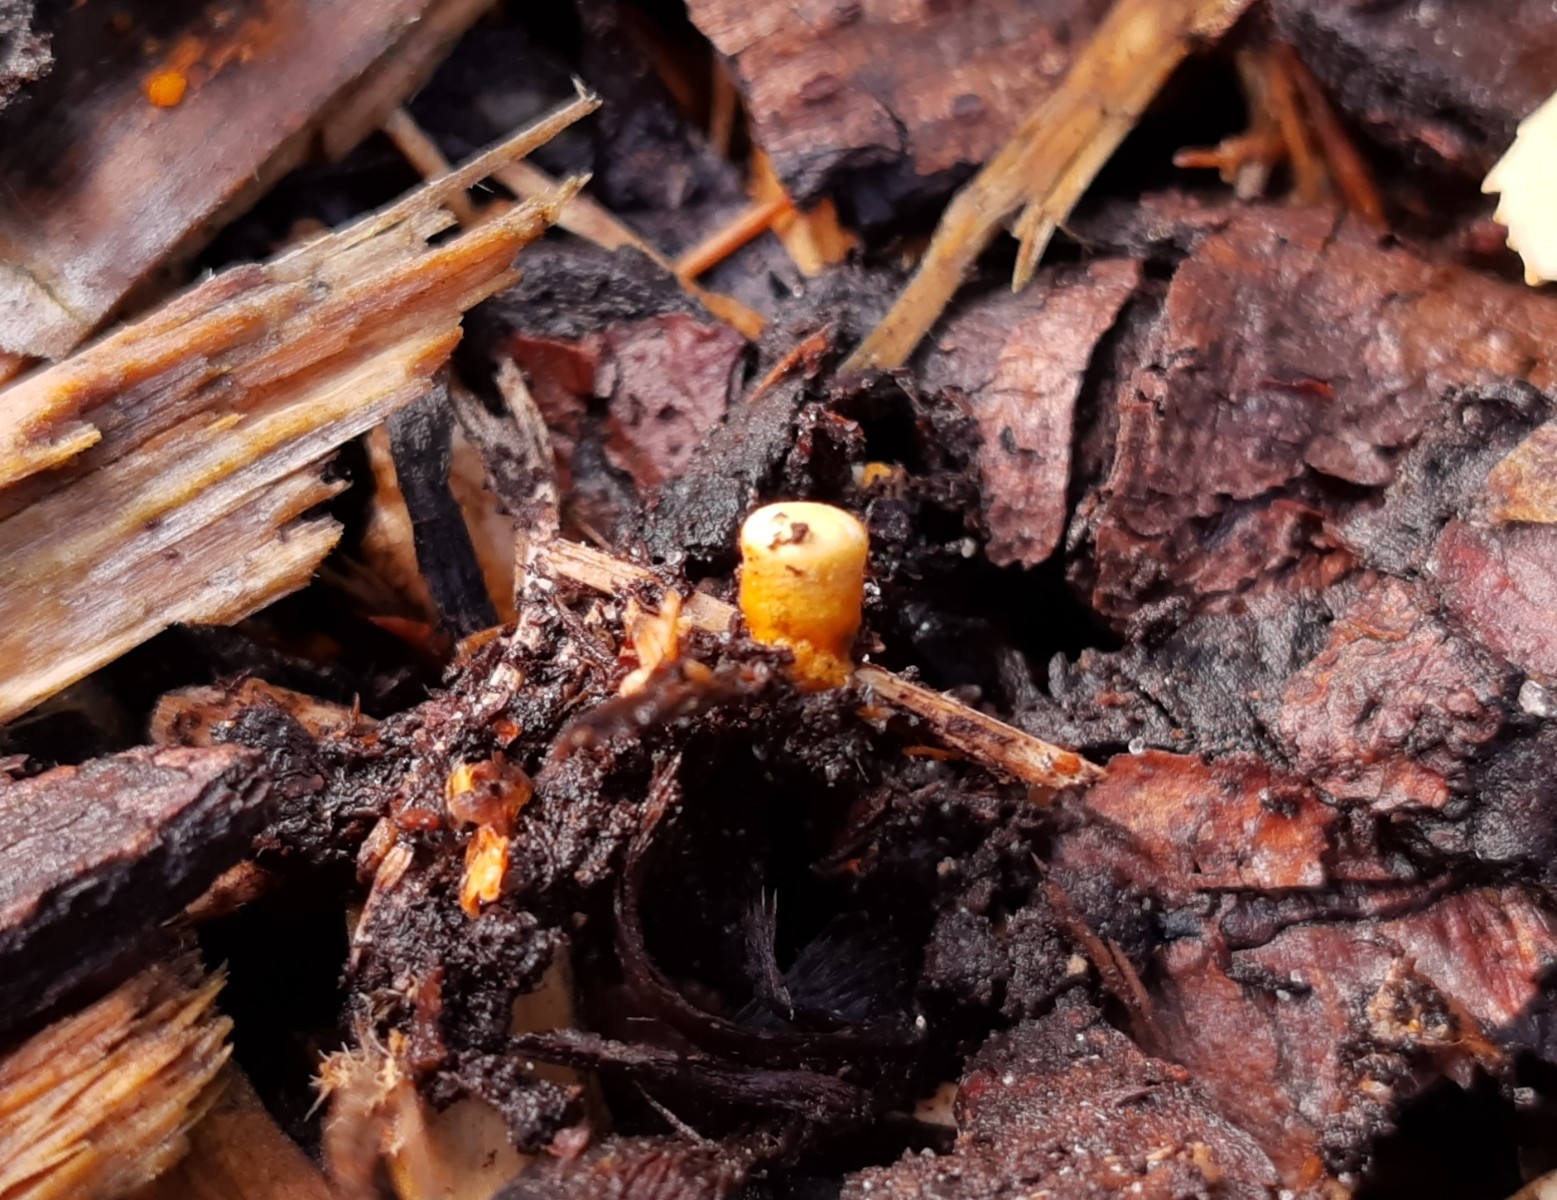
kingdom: Fungi
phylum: Basidiomycota
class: Agaricomycetes
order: Agaricales
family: Nidulariaceae
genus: Crucibulum
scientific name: Crucibulum crucibuliforme
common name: krukkesvamp
